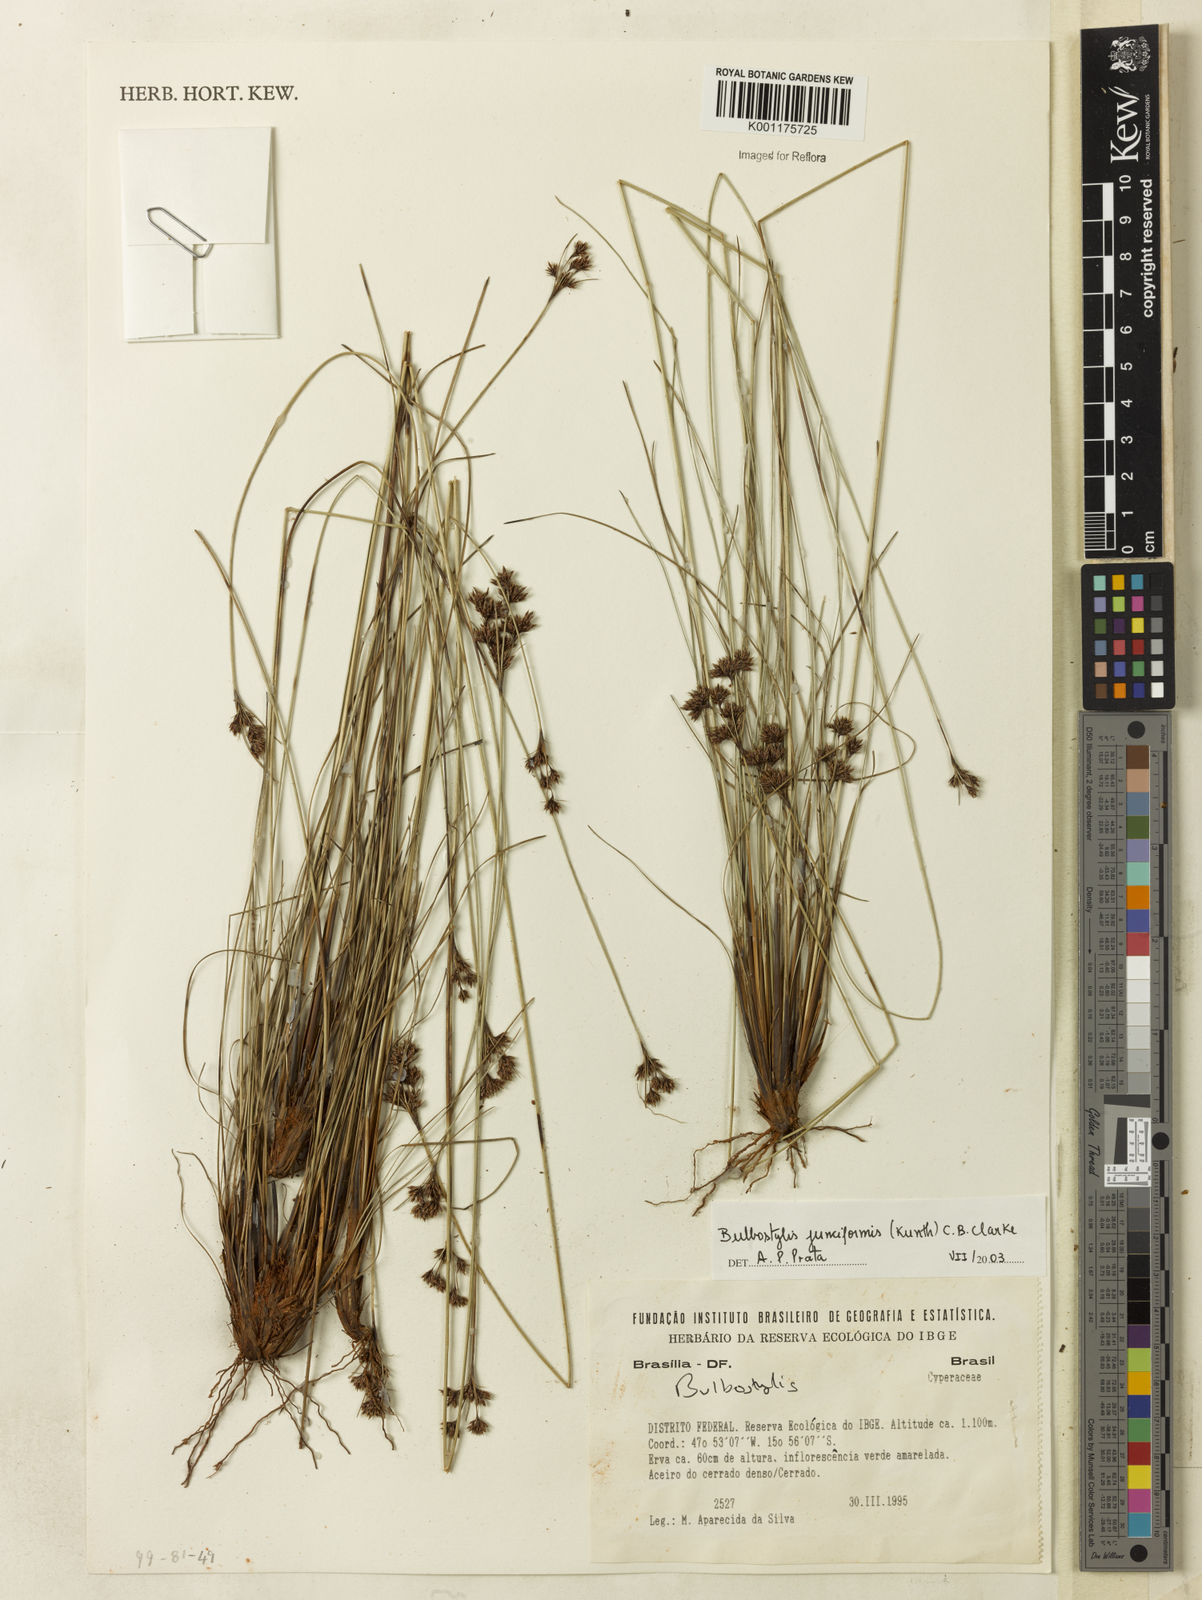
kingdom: Plantae
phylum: Tracheophyta
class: Liliopsida
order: Poales
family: Cyperaceae
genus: Bulbostylis
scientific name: Bulbostylis junciformis
